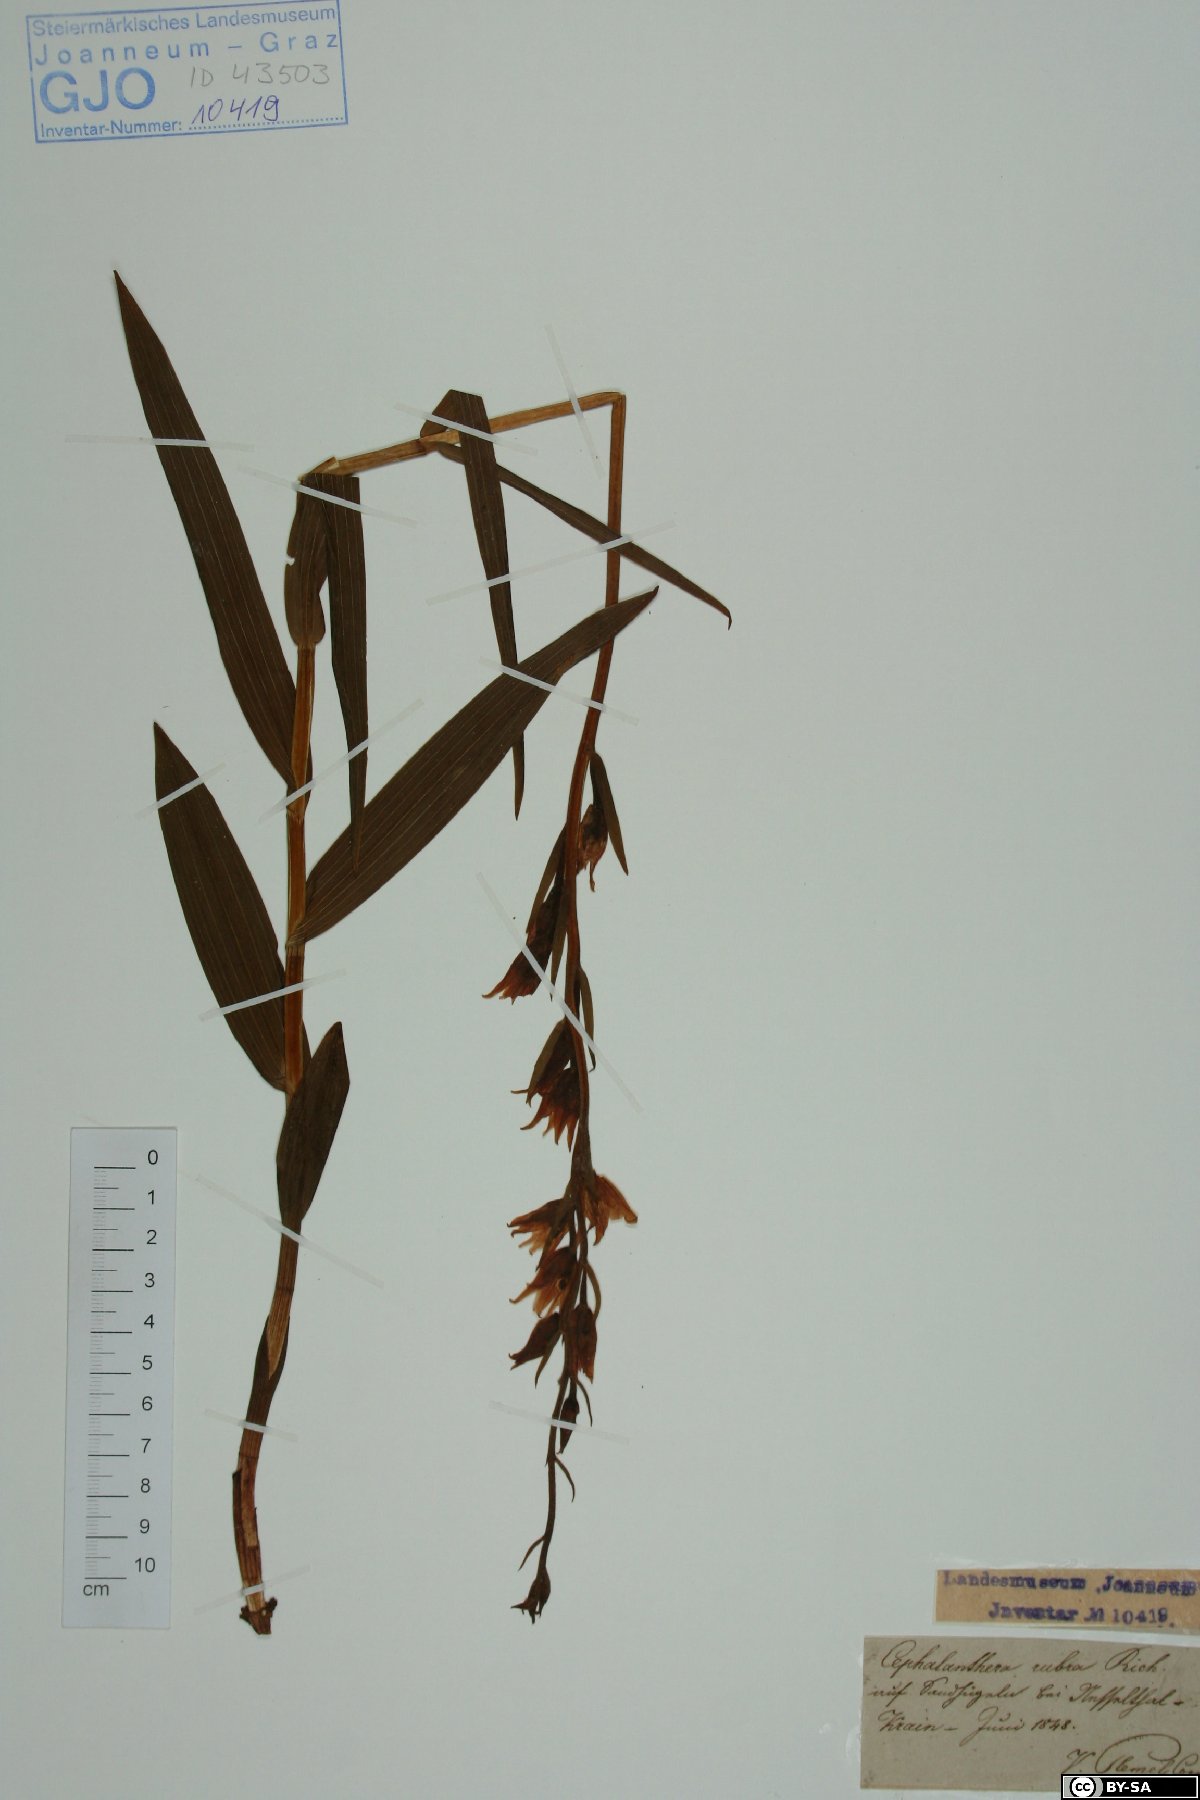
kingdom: Plantae
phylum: Tracheophyta
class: Liliopsida
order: Asparagales
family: Orchidaceae
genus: Cephalanthera
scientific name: Cephalanthera rubra
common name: Red helleborine
